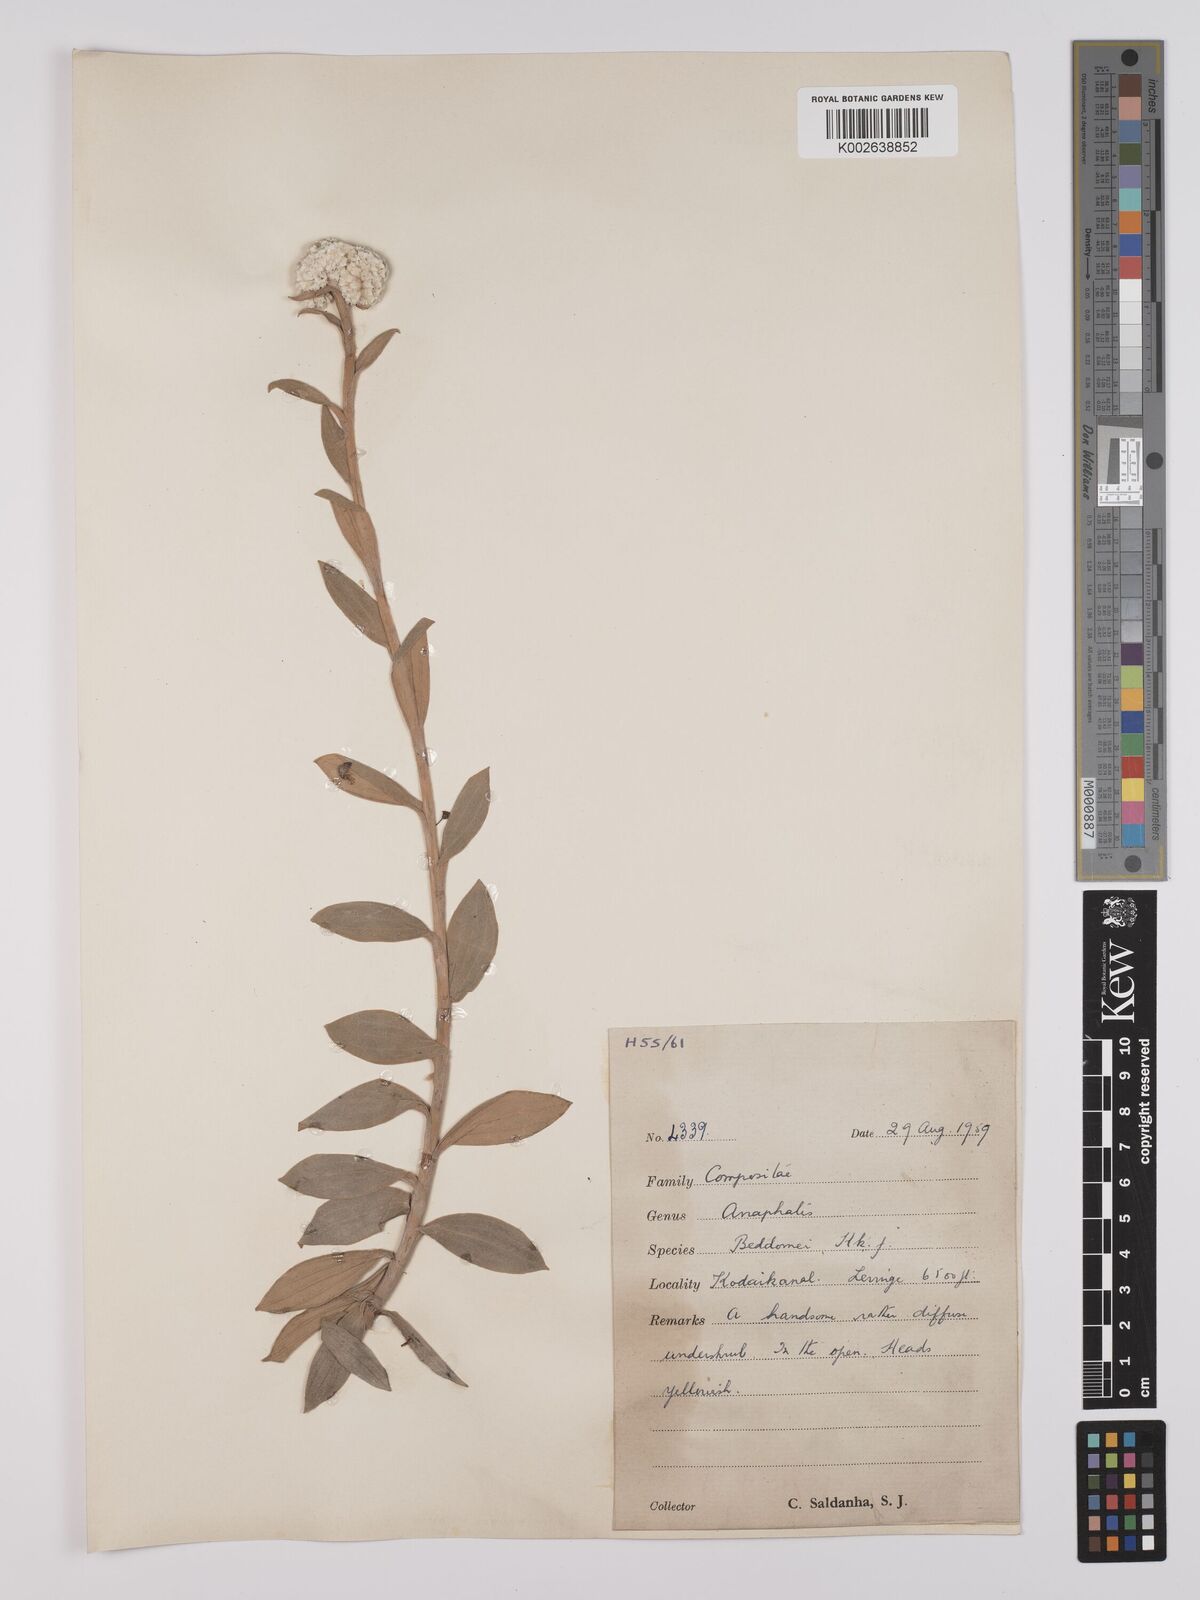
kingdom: Plantae
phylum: Tracheophyta
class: Magnoliopsida
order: Asterales
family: Asteraceae
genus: Anaphalis
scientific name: Anaphalis beddomei
